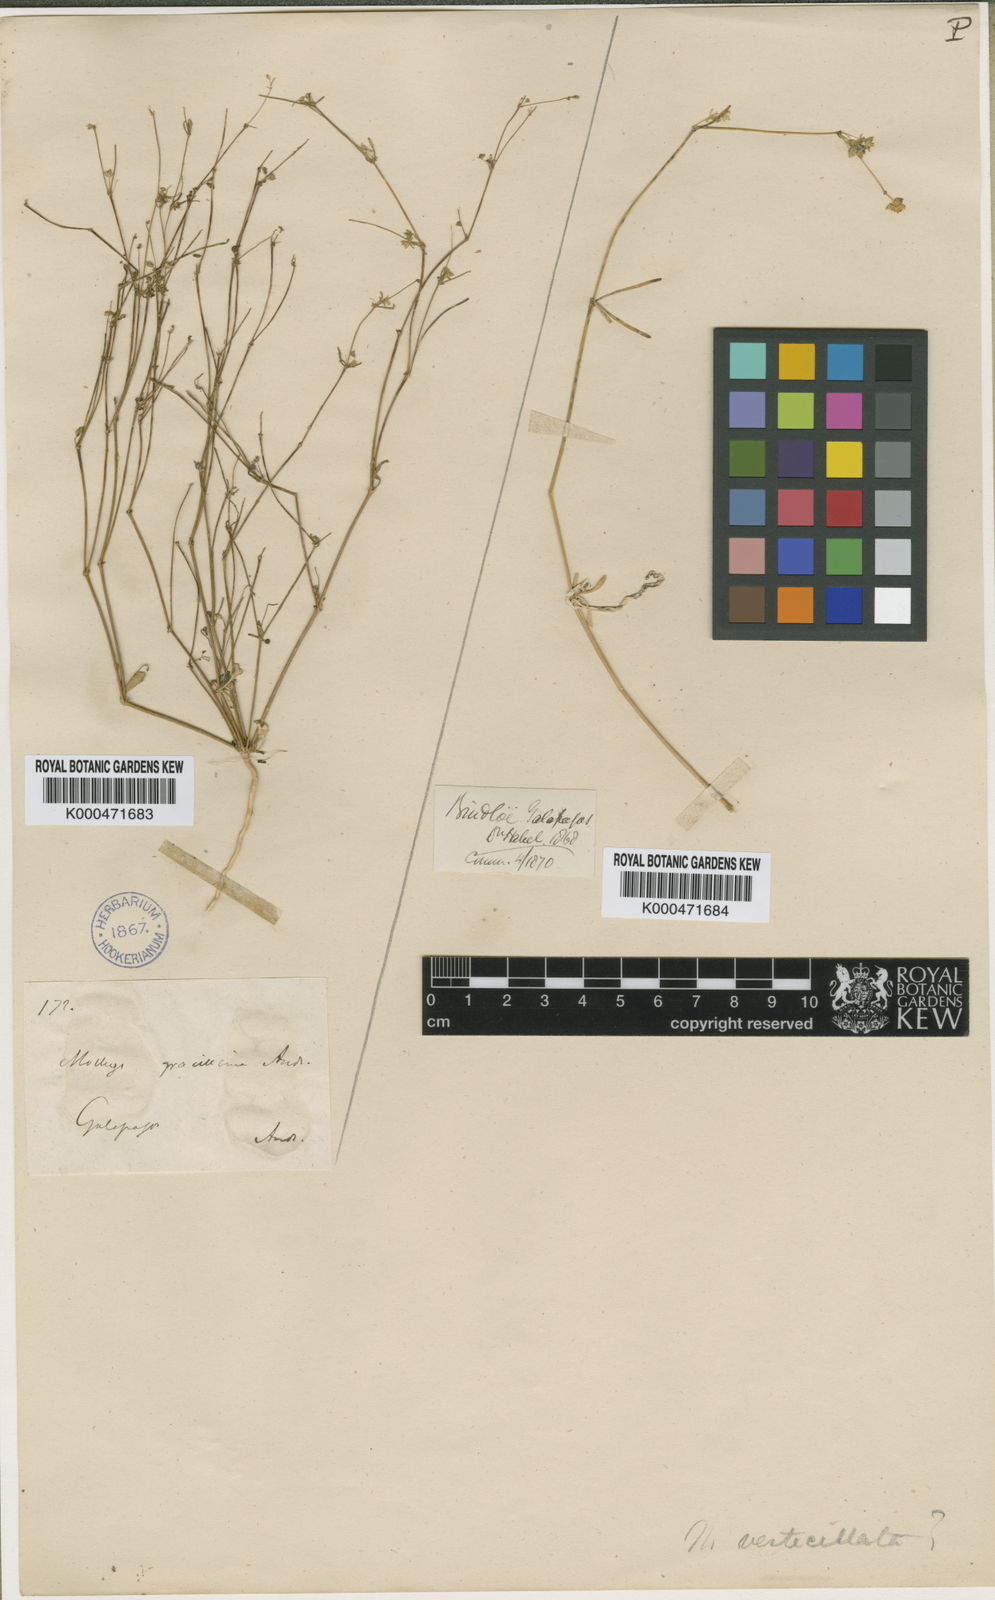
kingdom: Plantae
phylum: Tracheophyta
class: Magnoliopsida
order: Caryophyllales
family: Molluginaceae
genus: Mollugo
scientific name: Mollugo flavescens
